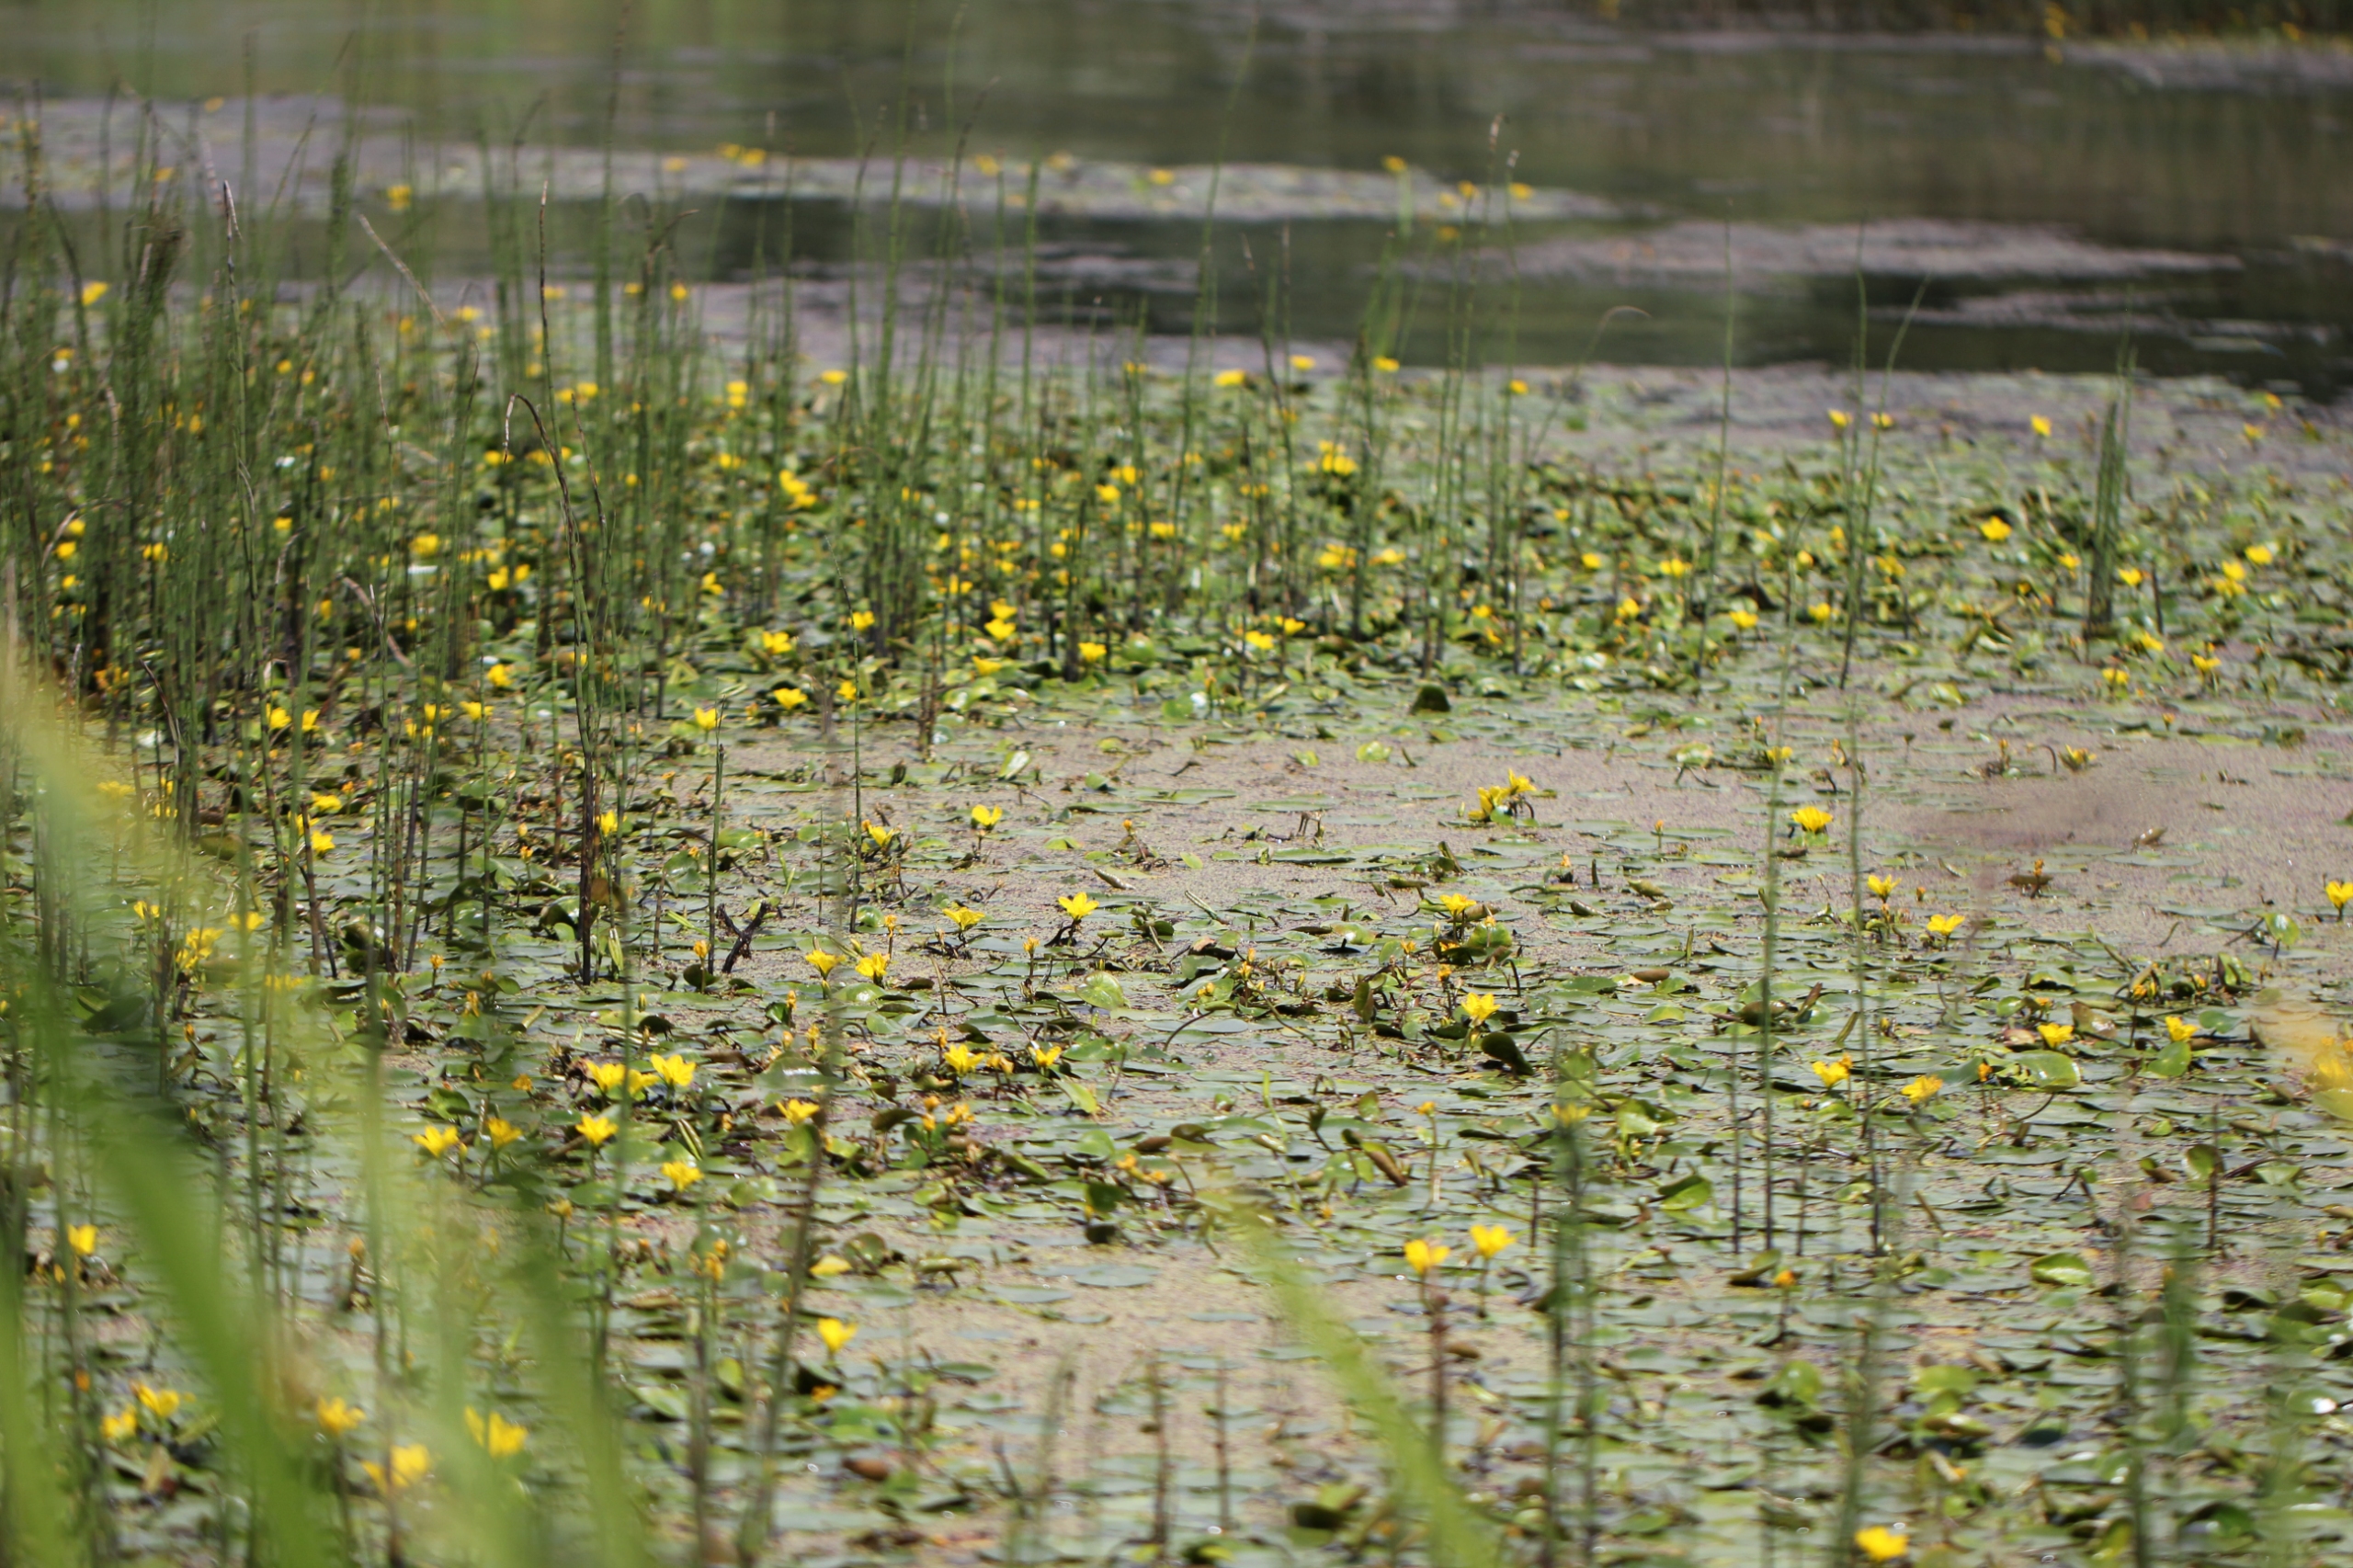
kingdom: Plantae
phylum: Tracheophyta
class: Magnoliopsida
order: Asterales
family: Menyanthaceae
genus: Nymphoides
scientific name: Nymphoides peltata
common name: Søblad
